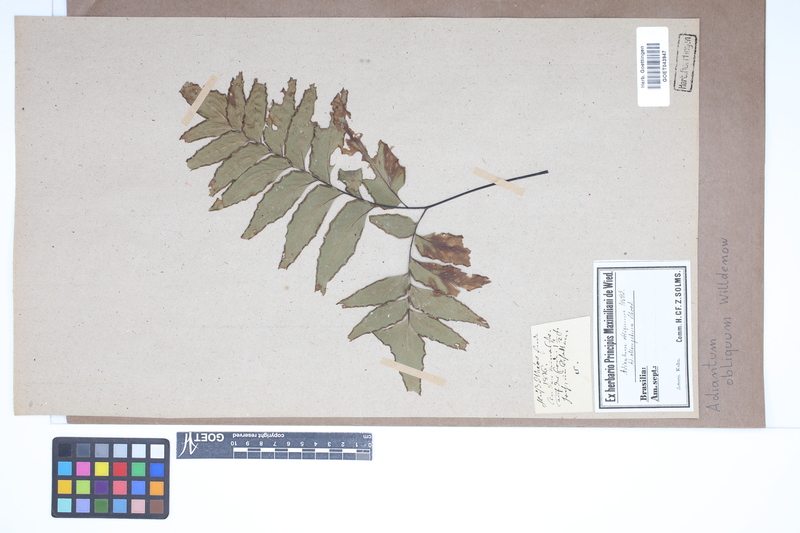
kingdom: Plantae
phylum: Tracheophyta
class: Polypodiopsida
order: Polypodiales
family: Pteridaceae
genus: Adiantum
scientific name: Adiantum macrophyllum
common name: Largeleaf maidenhair
